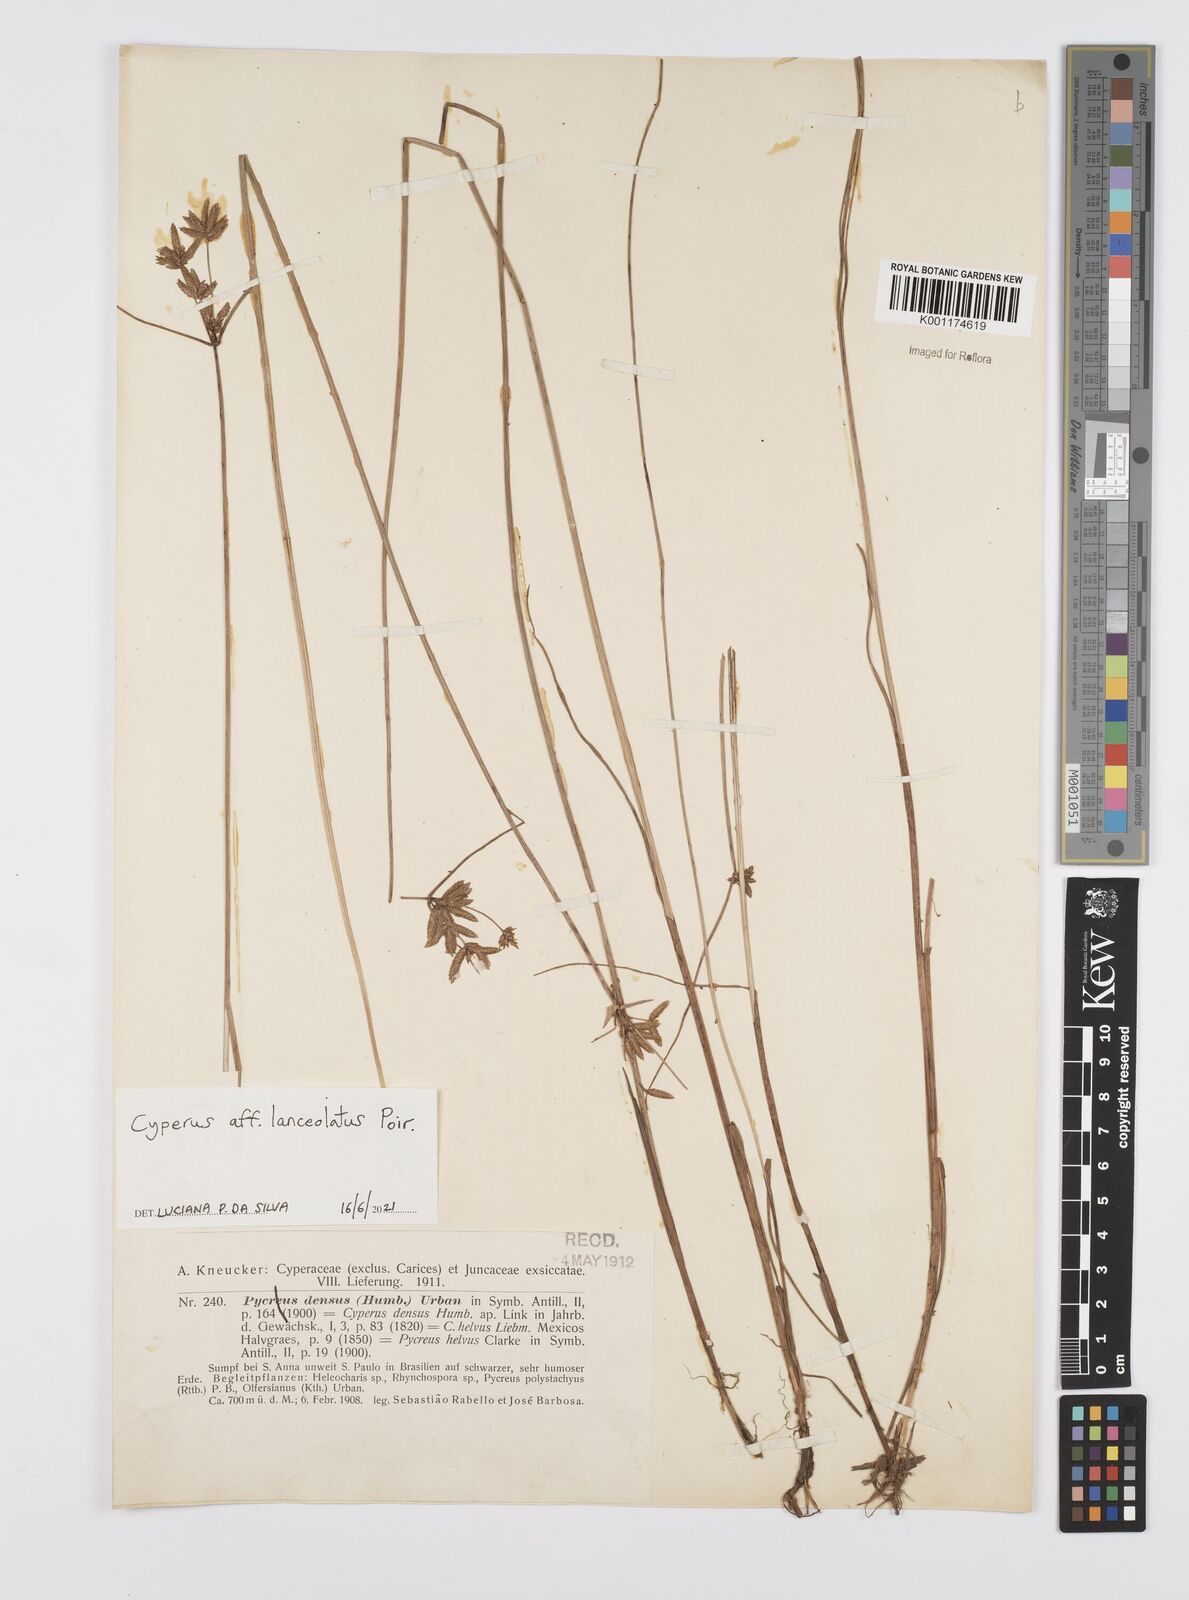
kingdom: Plantae
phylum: Tracheophyta
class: Liliopsida
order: Poales
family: Cyperaceae
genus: Cyperus
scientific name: Cyperus lanceolatus
